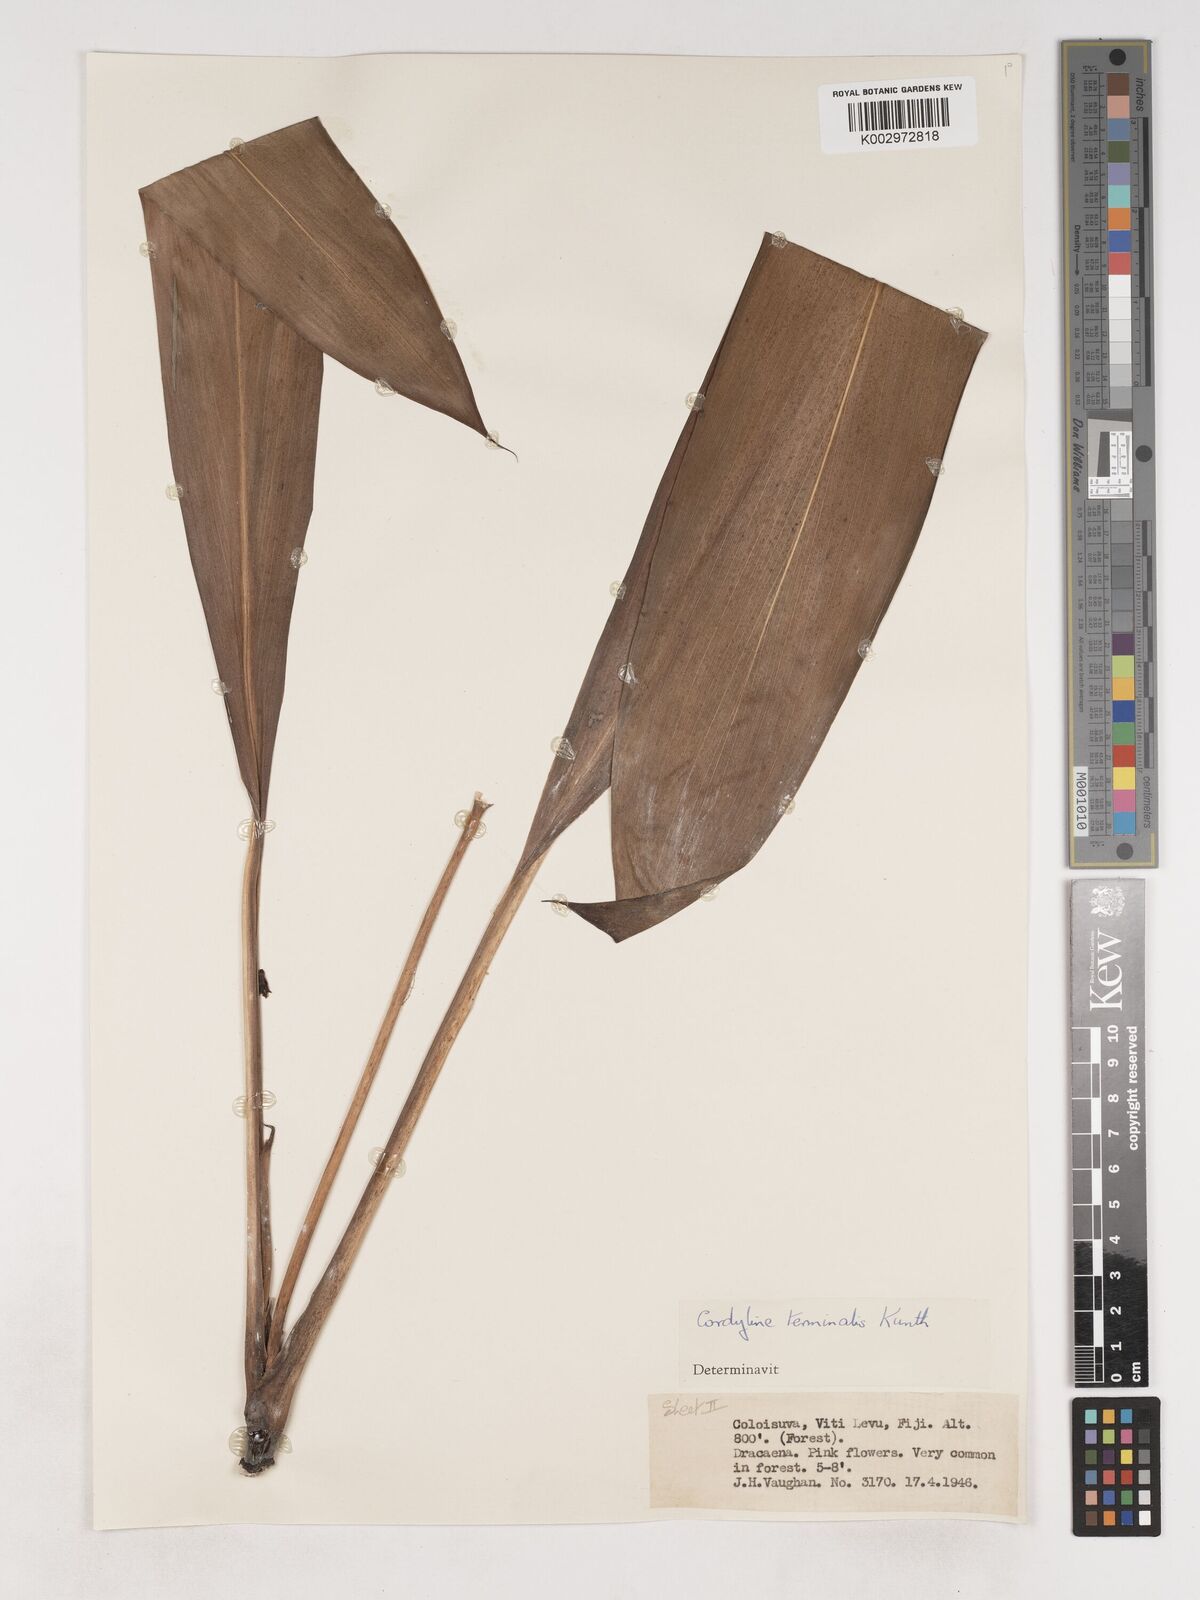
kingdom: Plantae
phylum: Tracheophyta
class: Liliopsida
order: Asparagales
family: Asparagaceae
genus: Cordyline
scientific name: Cordyline fruticosa
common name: Good-luck-plant
